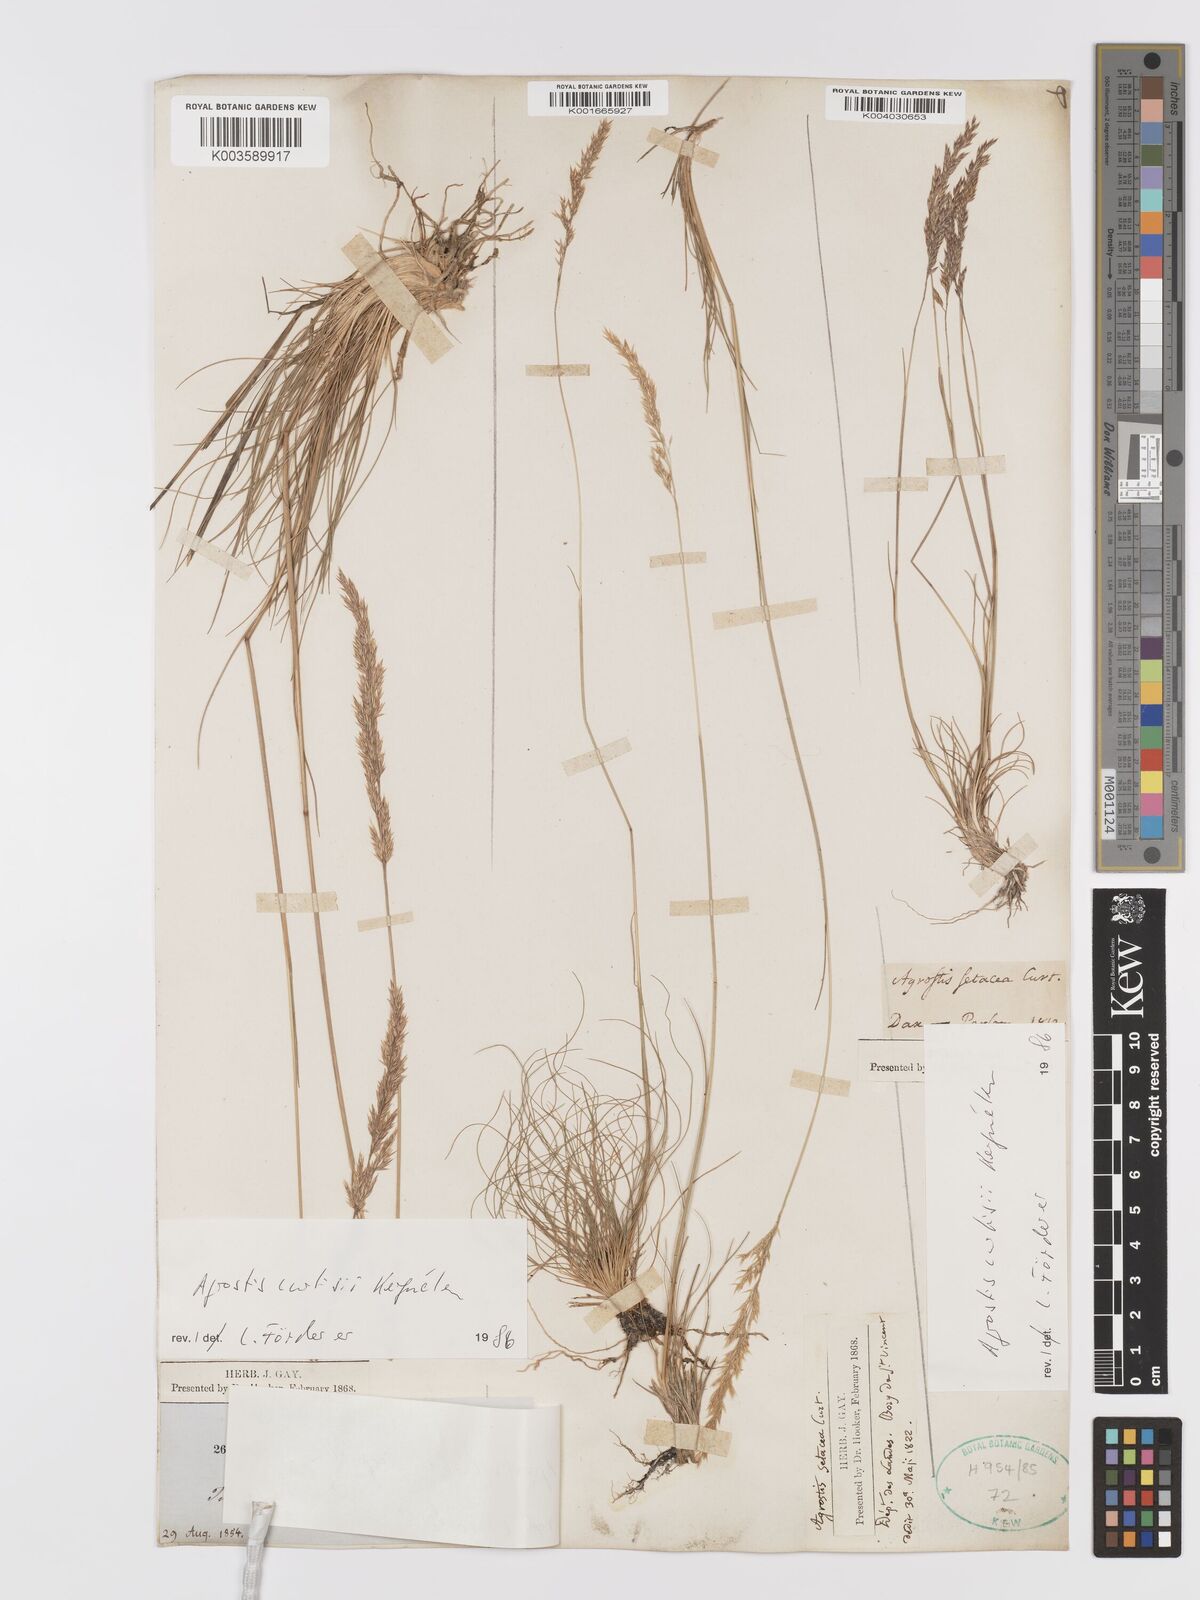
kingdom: Plantae
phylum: Tracheophyta
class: Liliopsida
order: Poales
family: Poaceae
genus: Alpagrostis
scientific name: Alpagrostis setacea
